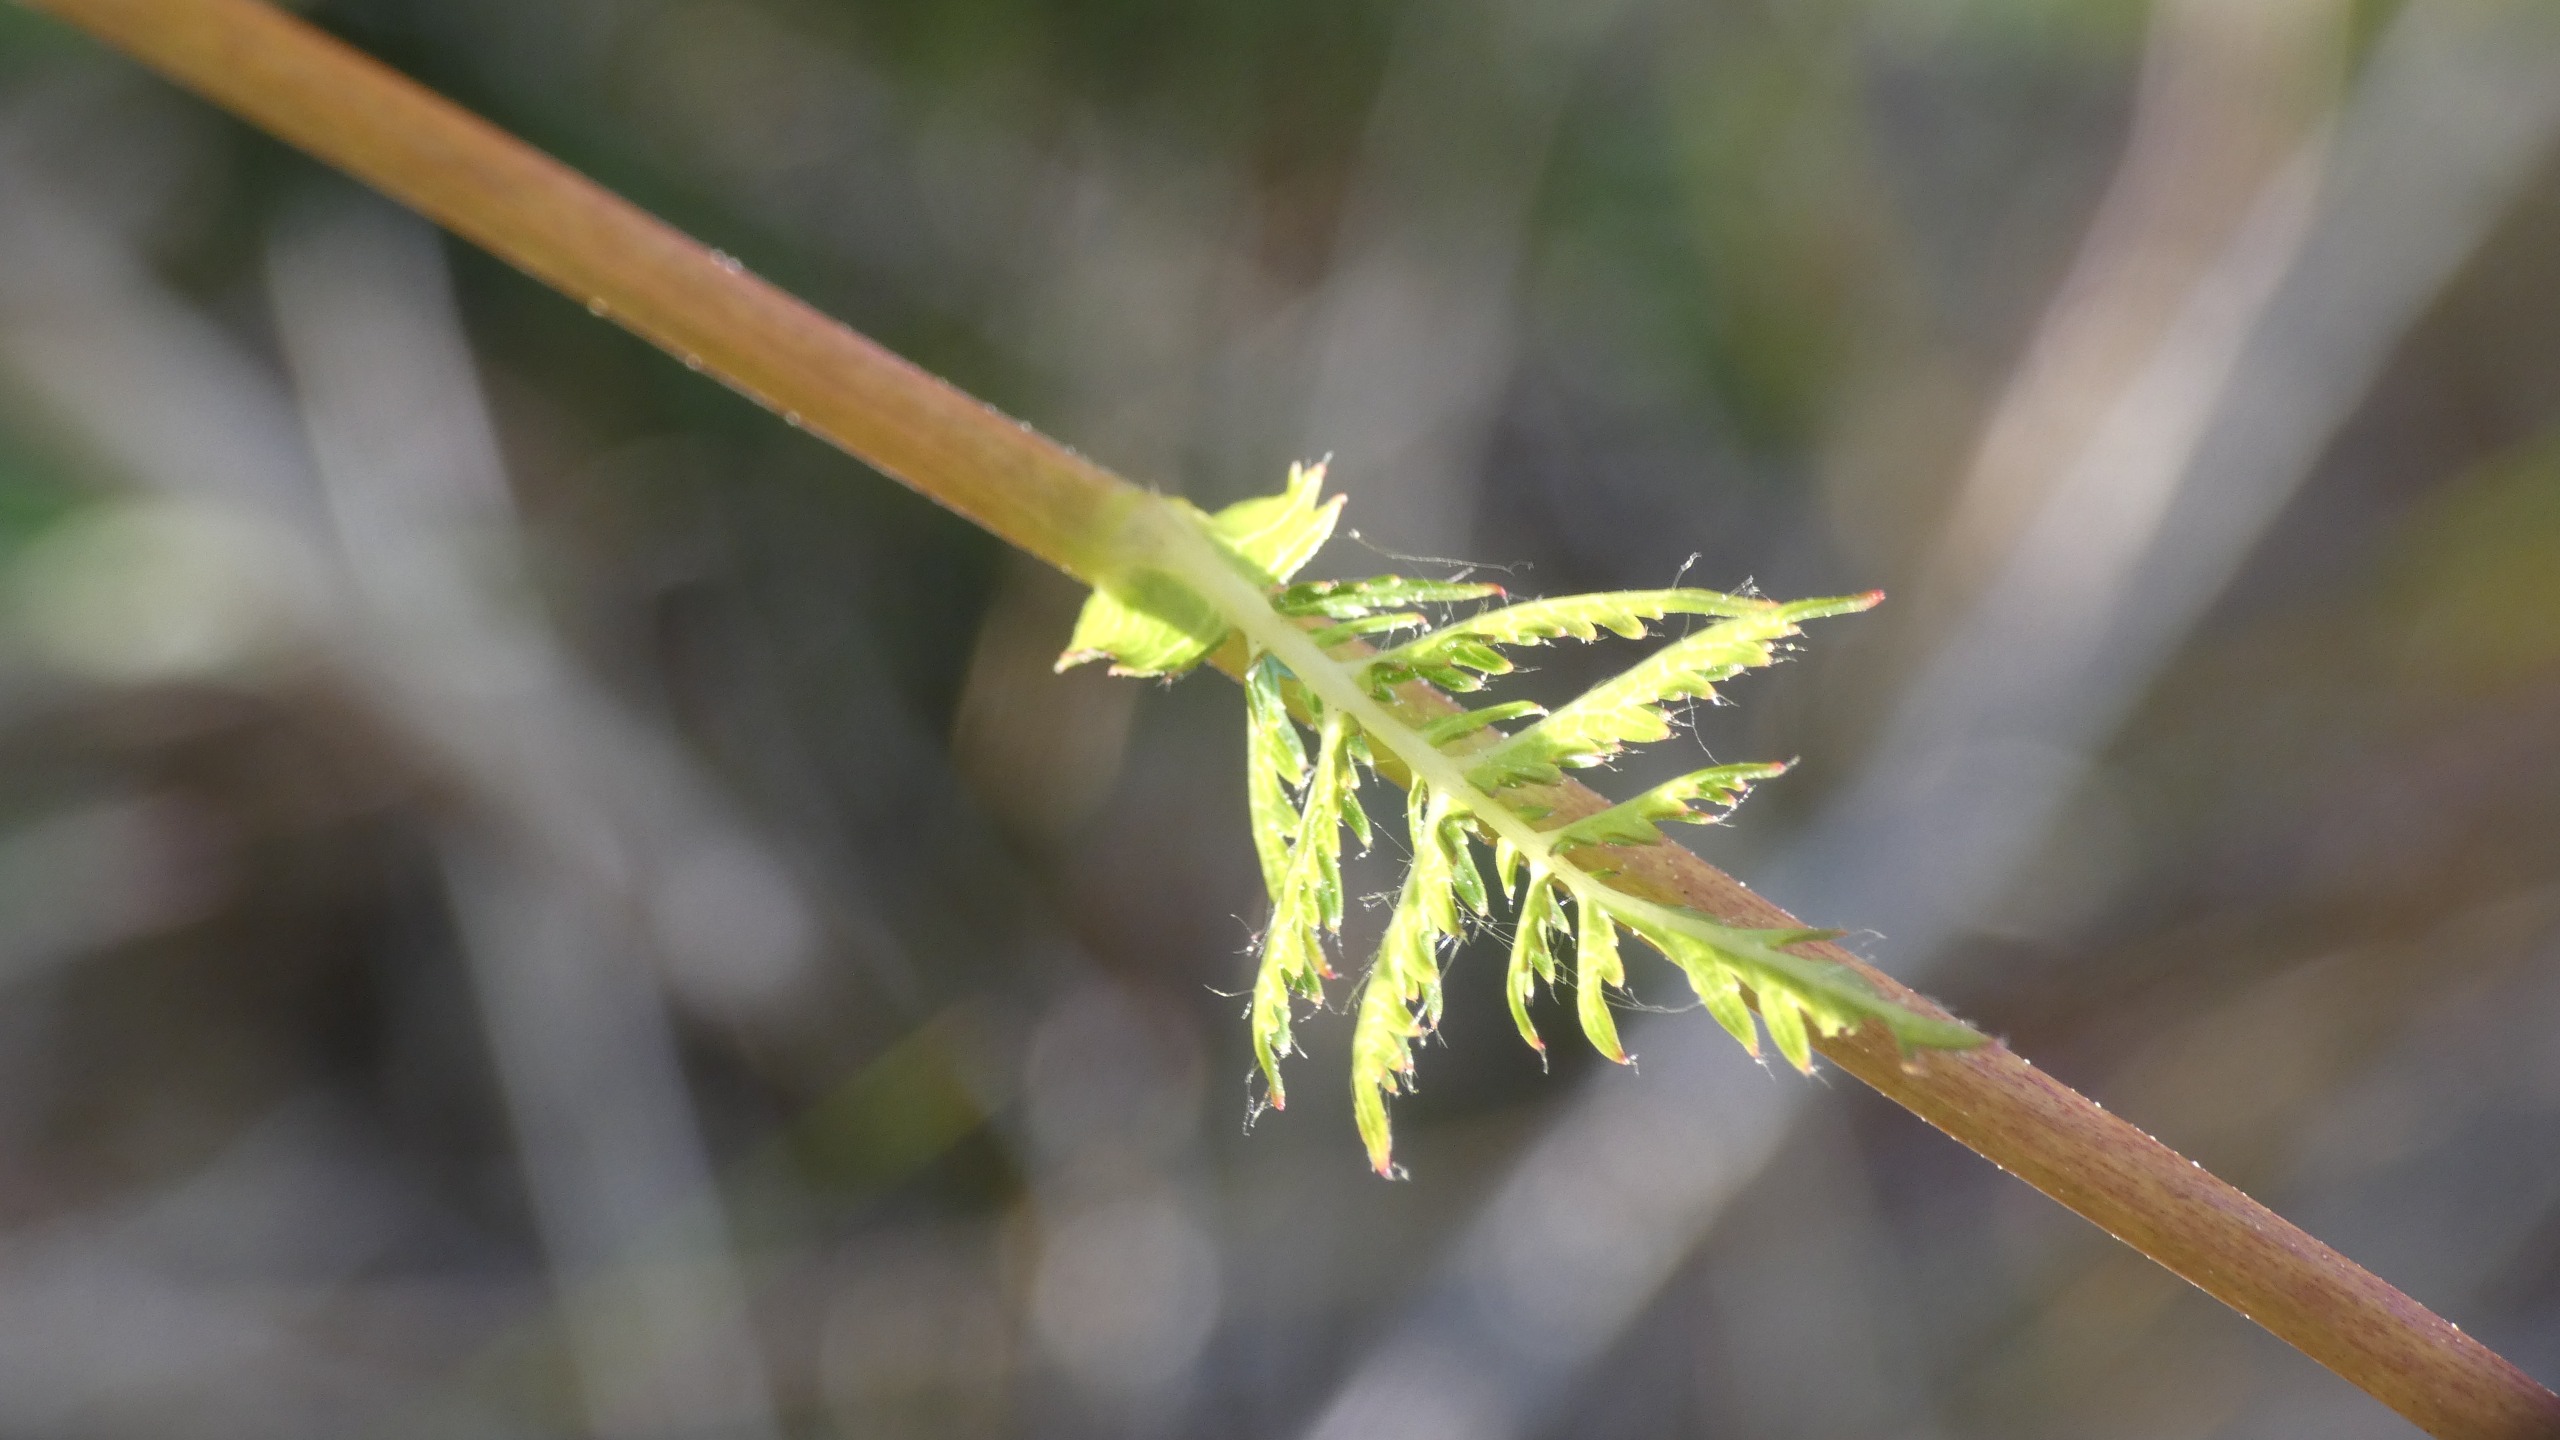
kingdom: Plantae
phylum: Tracheophyta
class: Magnoliopsida
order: Rosales
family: Rosaceae
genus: Filipendula
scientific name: Filipendula vulgaris
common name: Knoldet mjødurt
